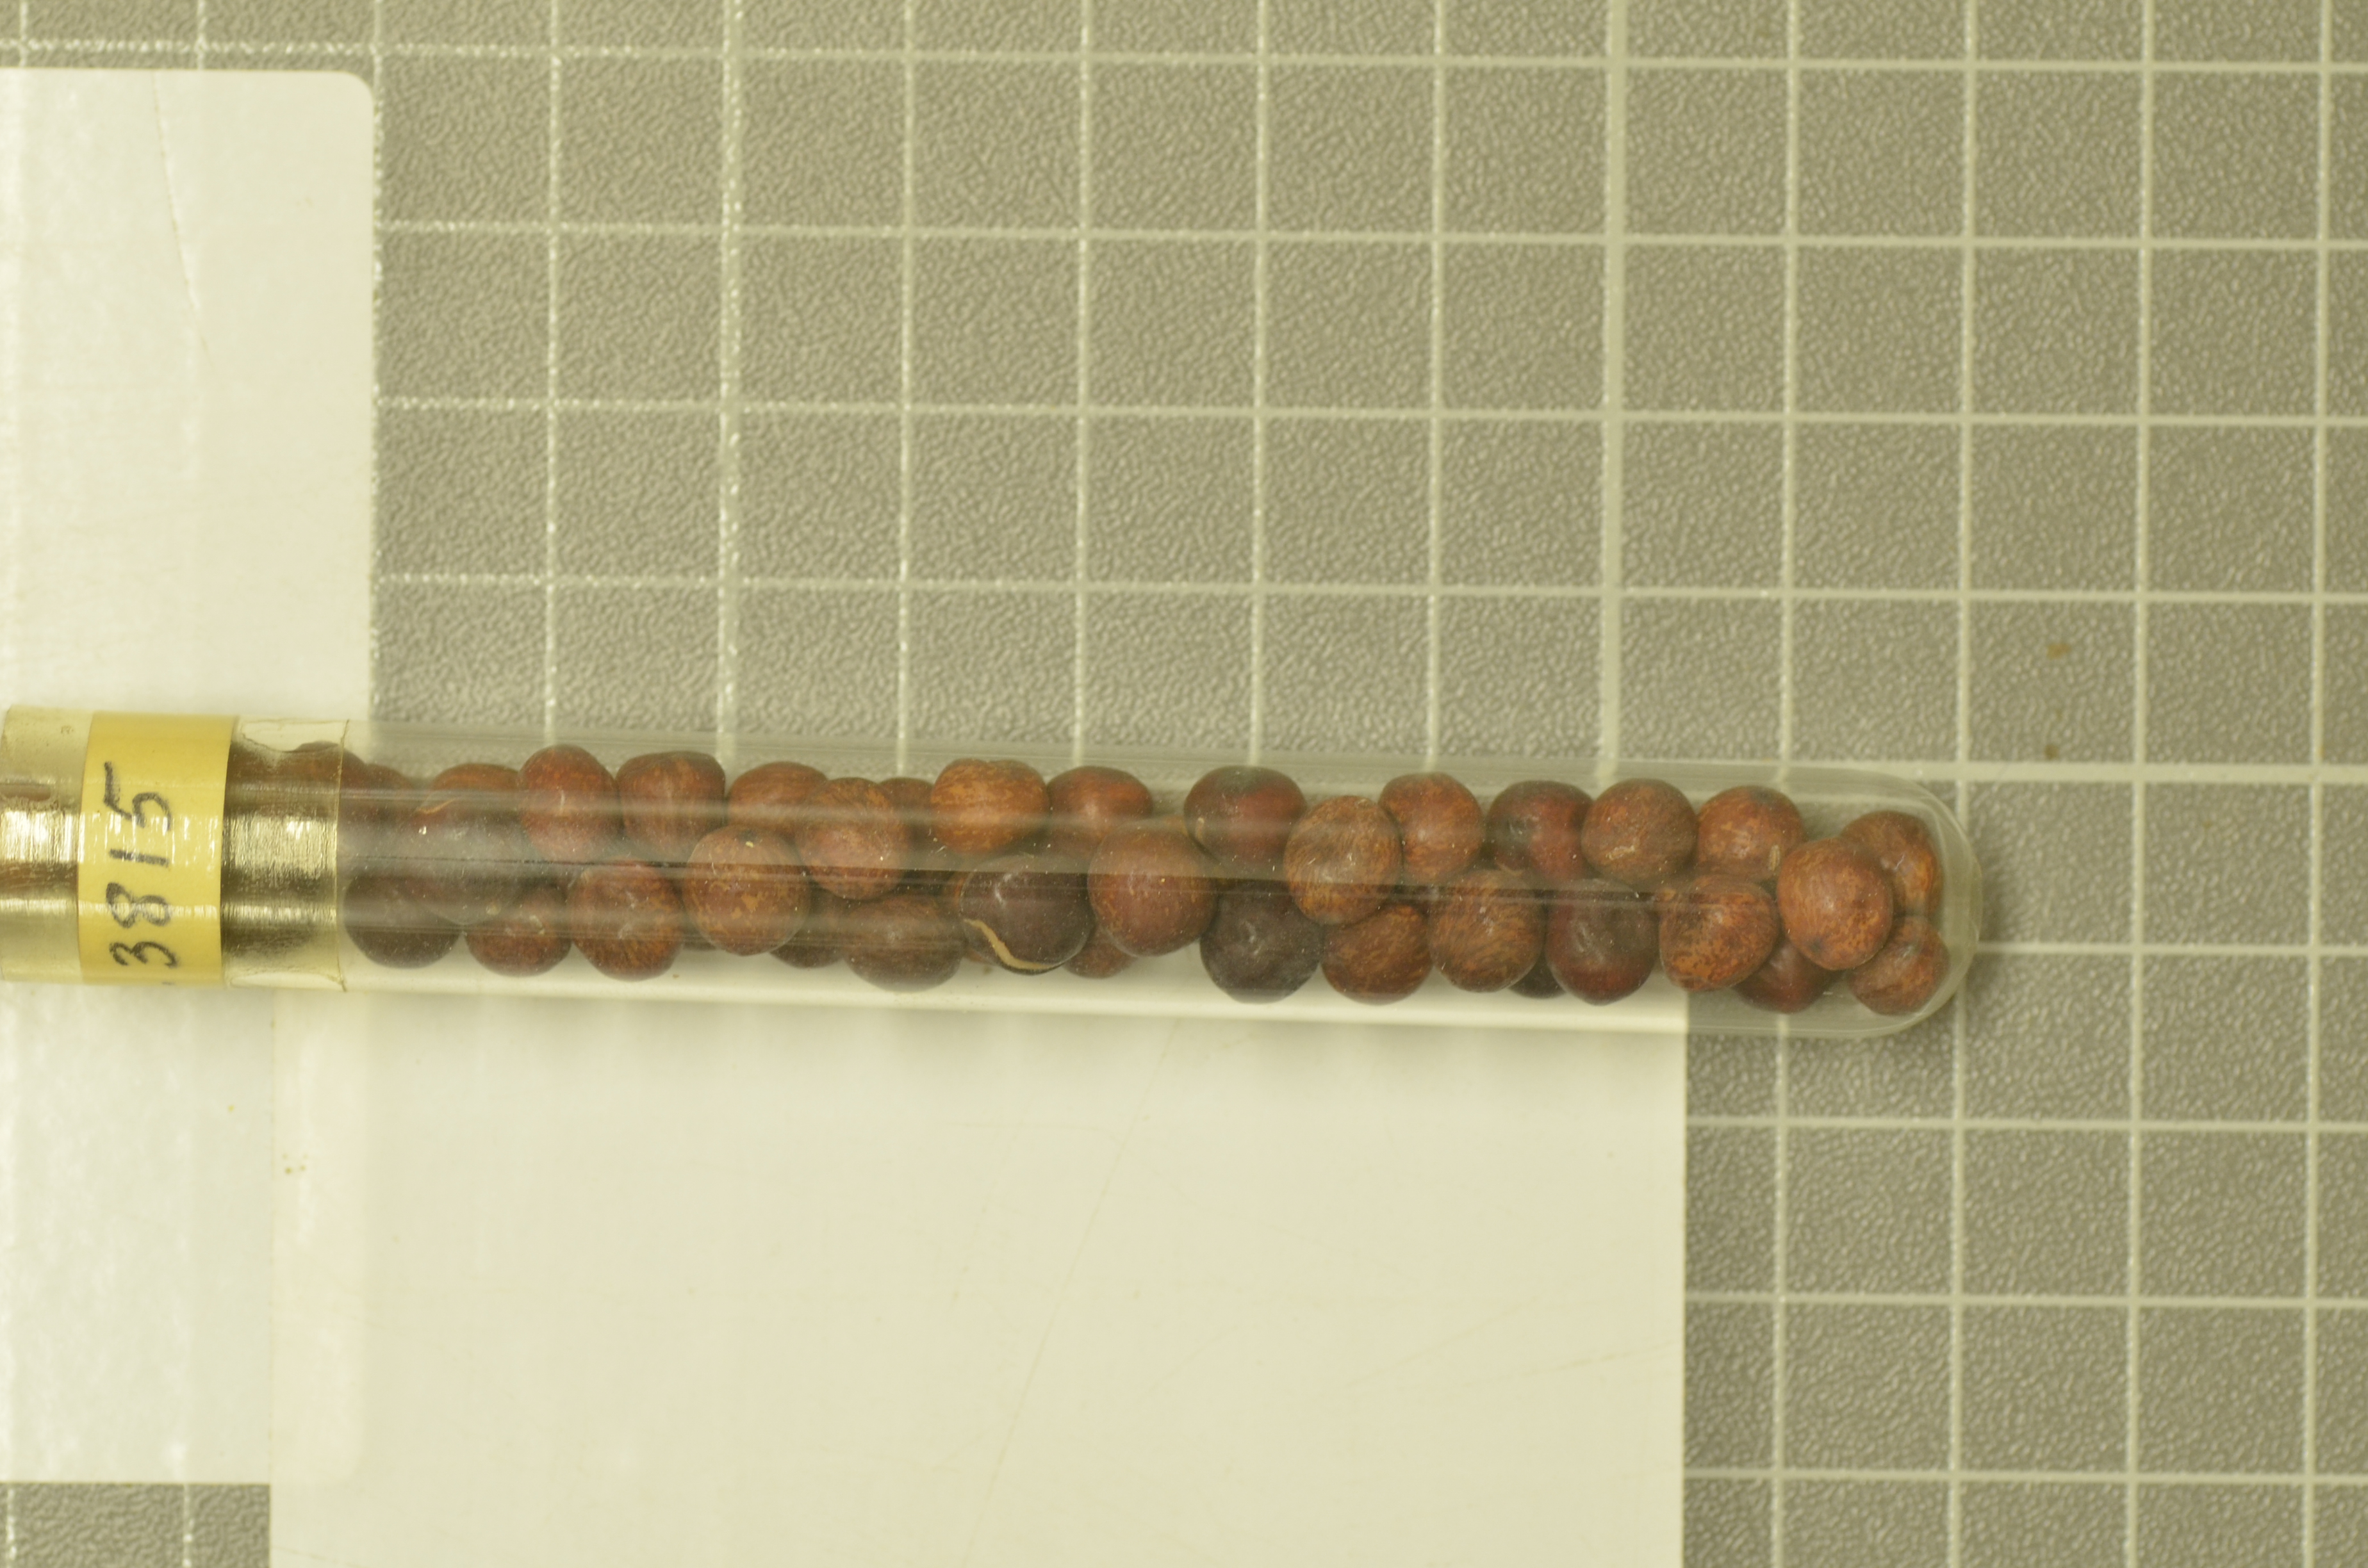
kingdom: Plantae
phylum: Tracheophyta
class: Magnoliopsida
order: Fabales
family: Fabaceae
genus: Lathyrus
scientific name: Lathyrus oleraceus
